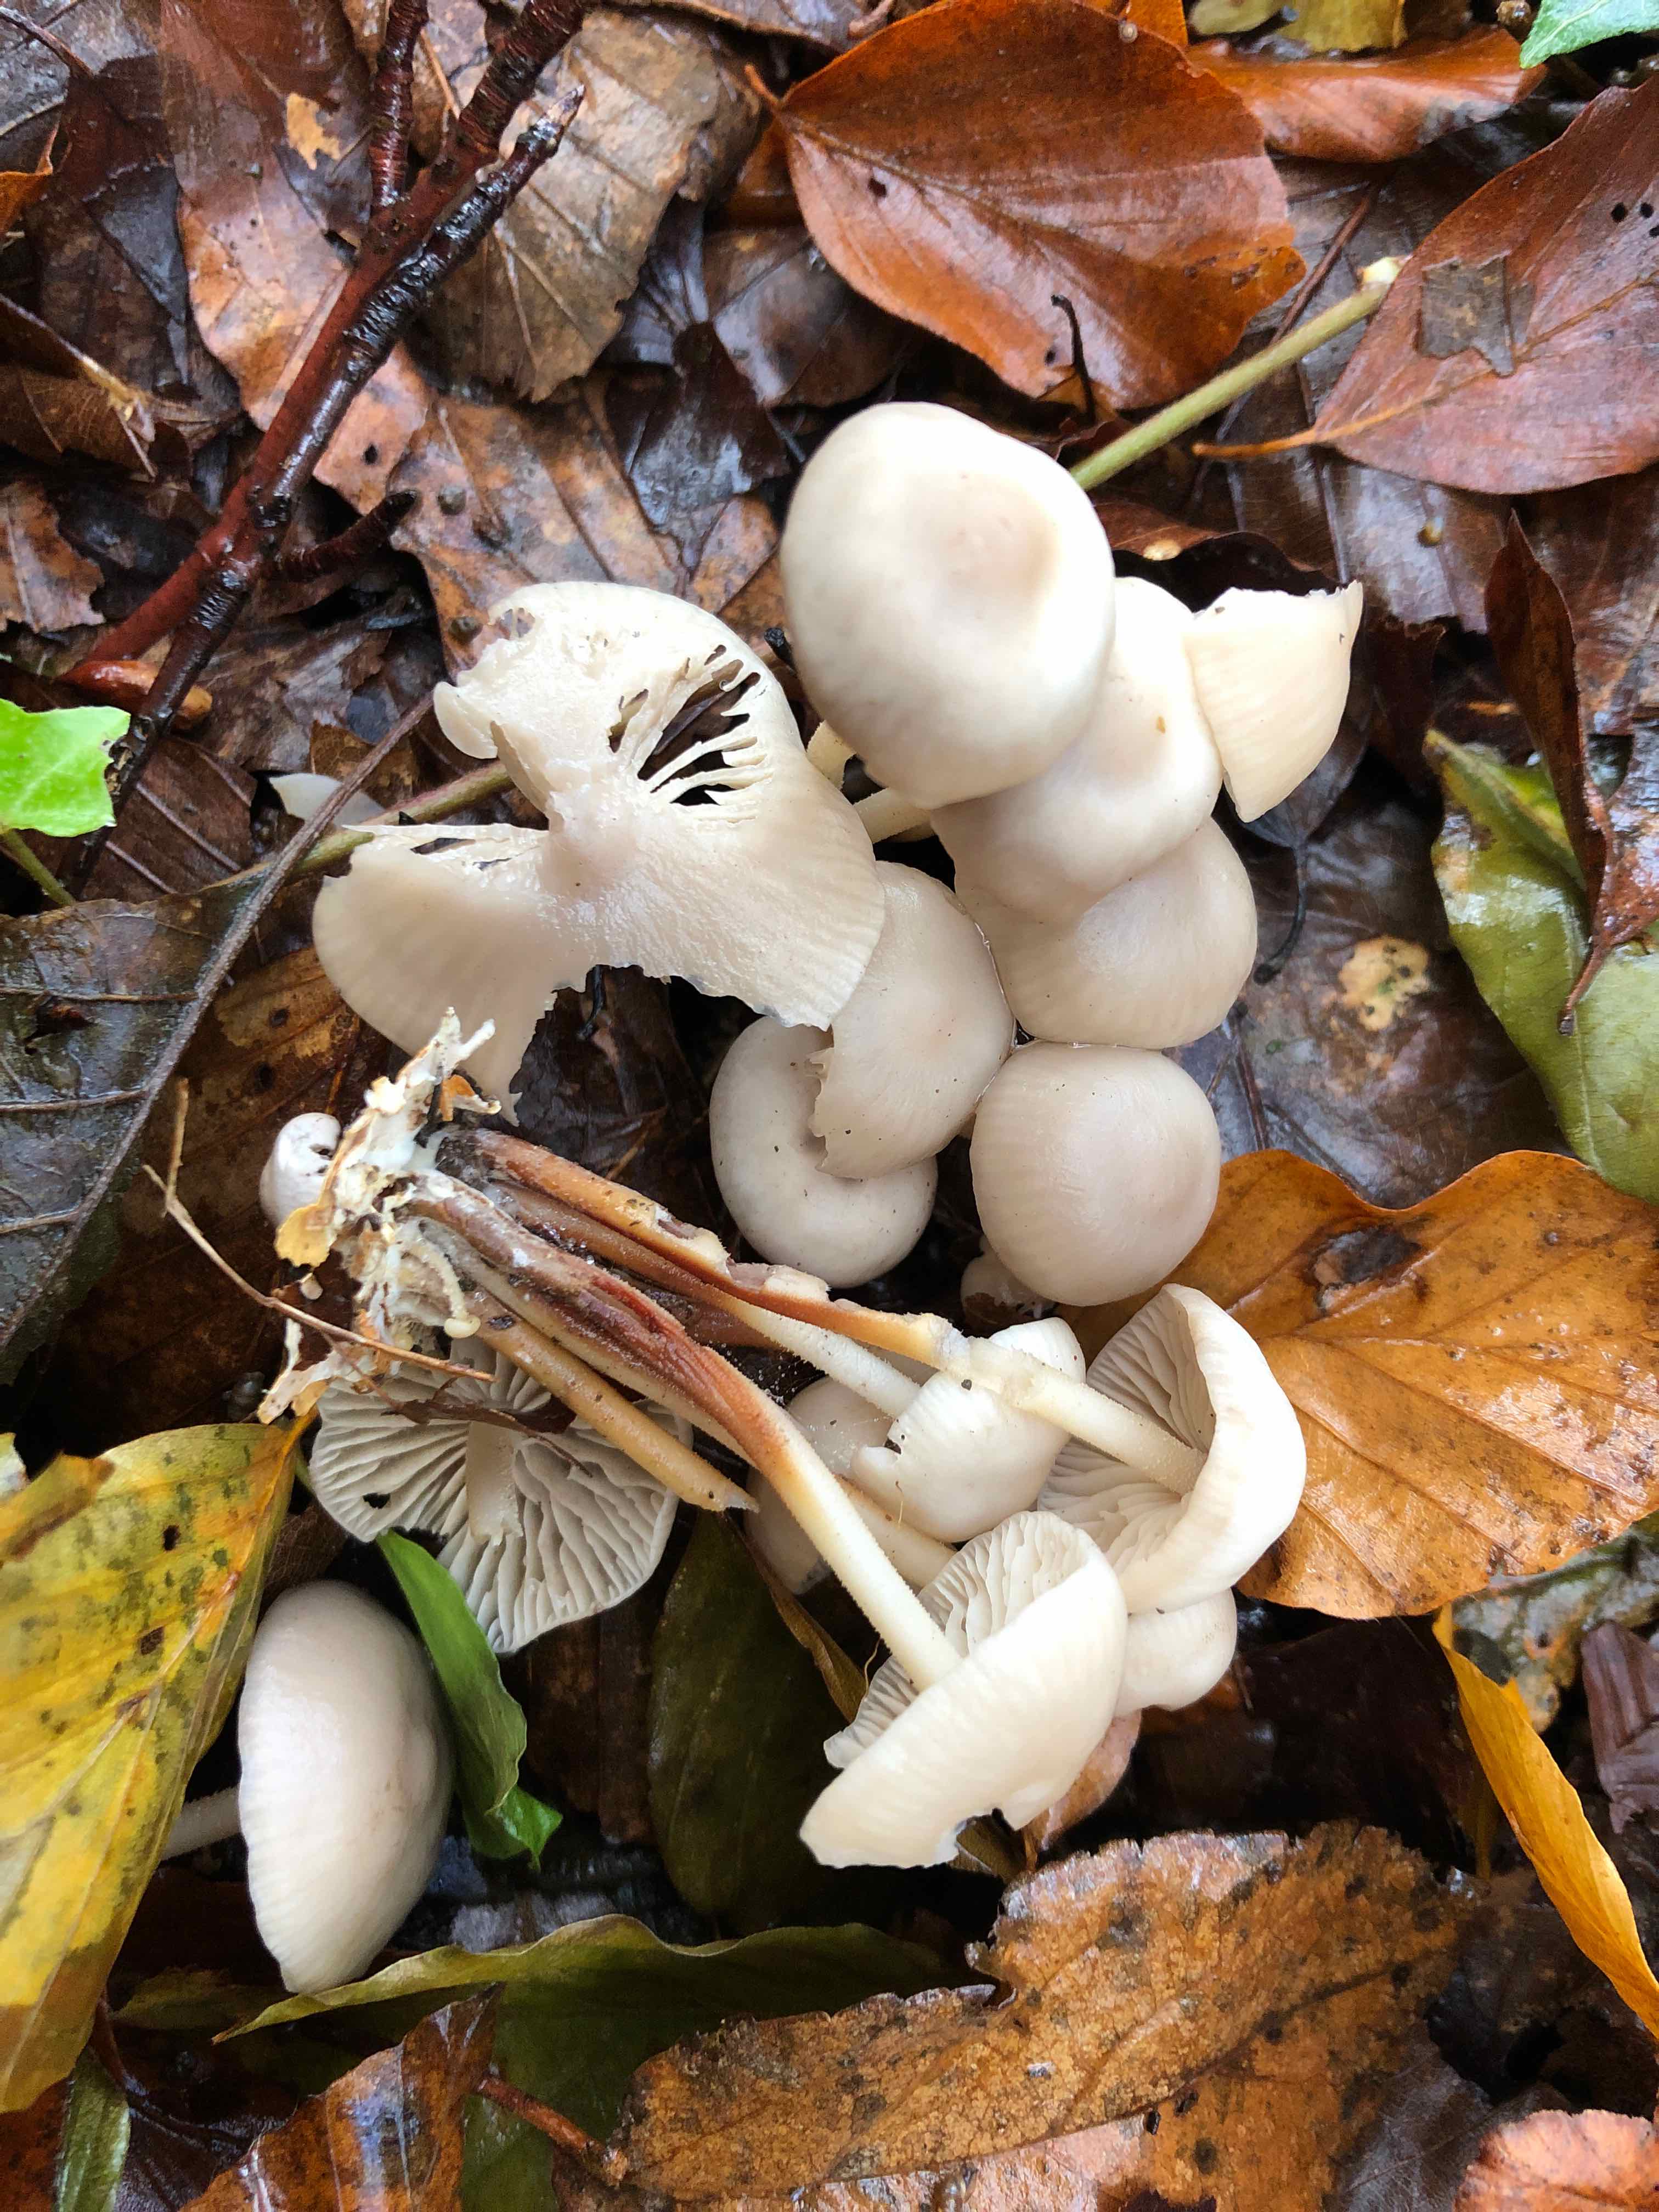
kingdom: Fungi
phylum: Basidiomycota
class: Agaricomycetes
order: Agaricales
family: Marasmiaceae
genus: Marasmius
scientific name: Marasmius wynneae
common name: hvælvet bruskhat
